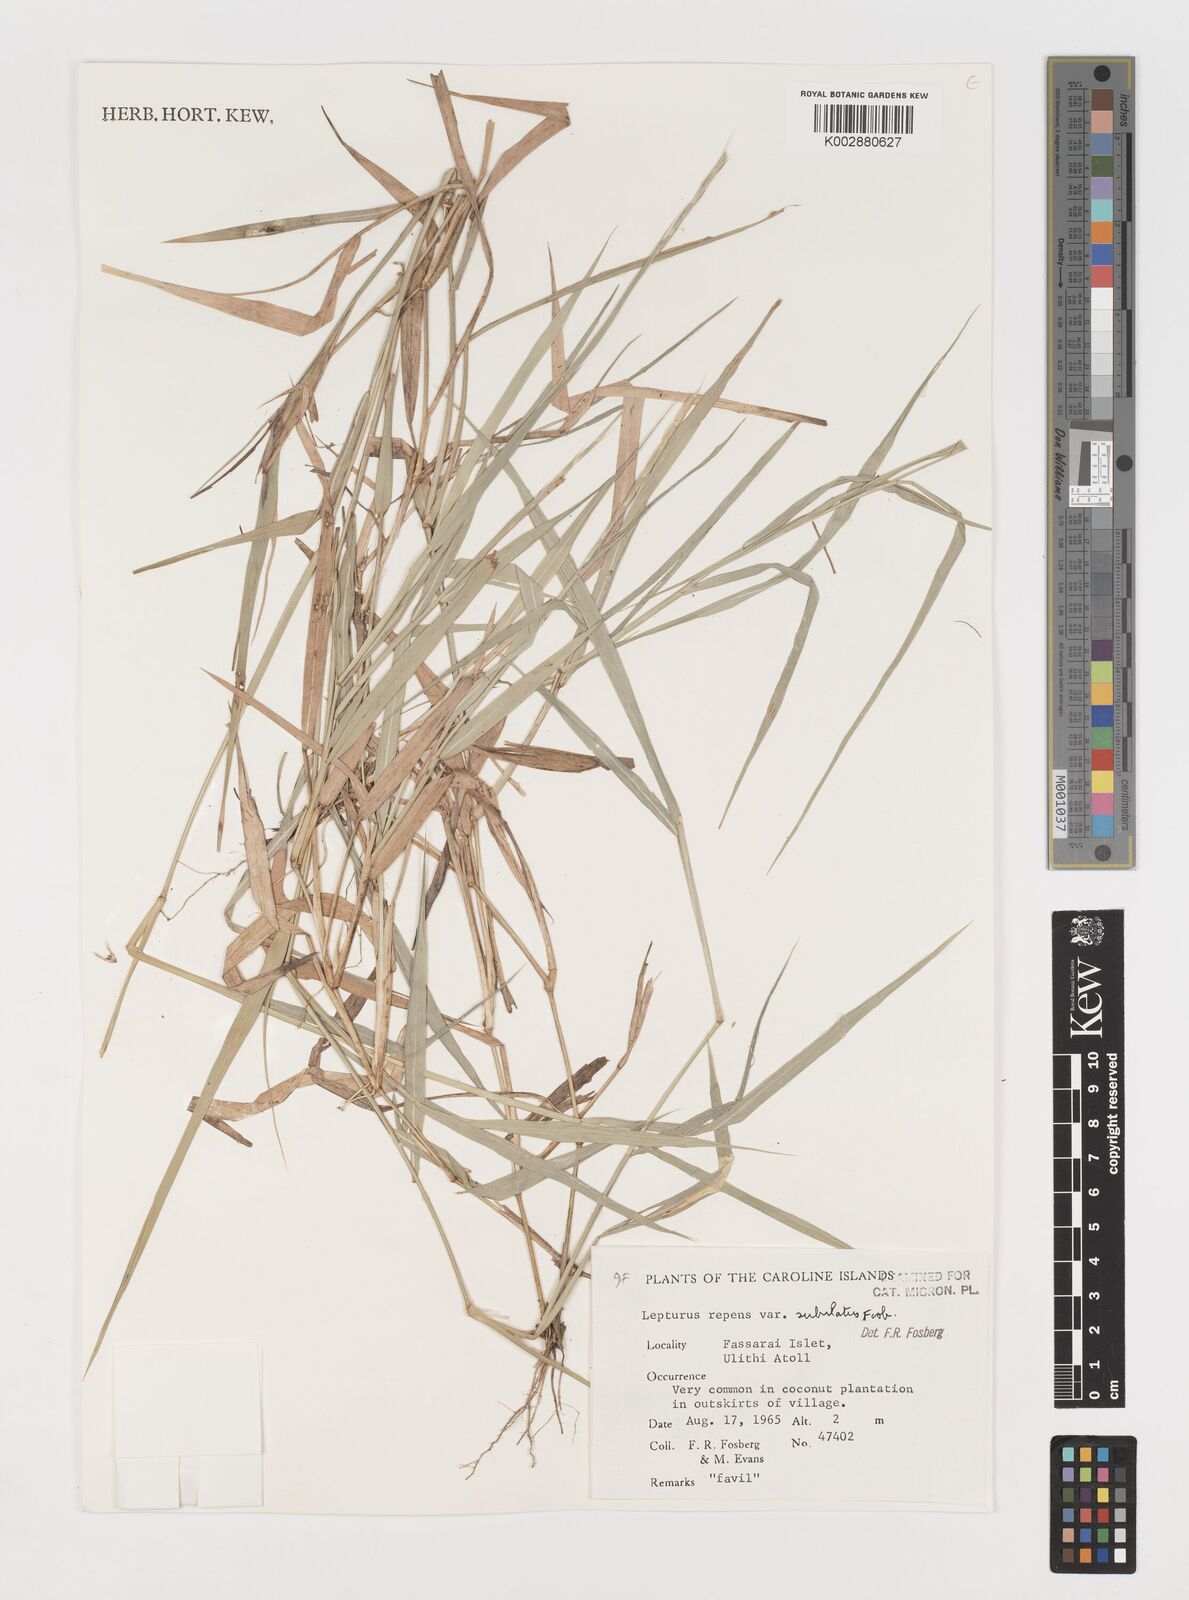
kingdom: Plantae
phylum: Tracheophyta
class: Liliopsida
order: Poales
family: Poaceae
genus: Lepturus
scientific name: Lepturus repens
